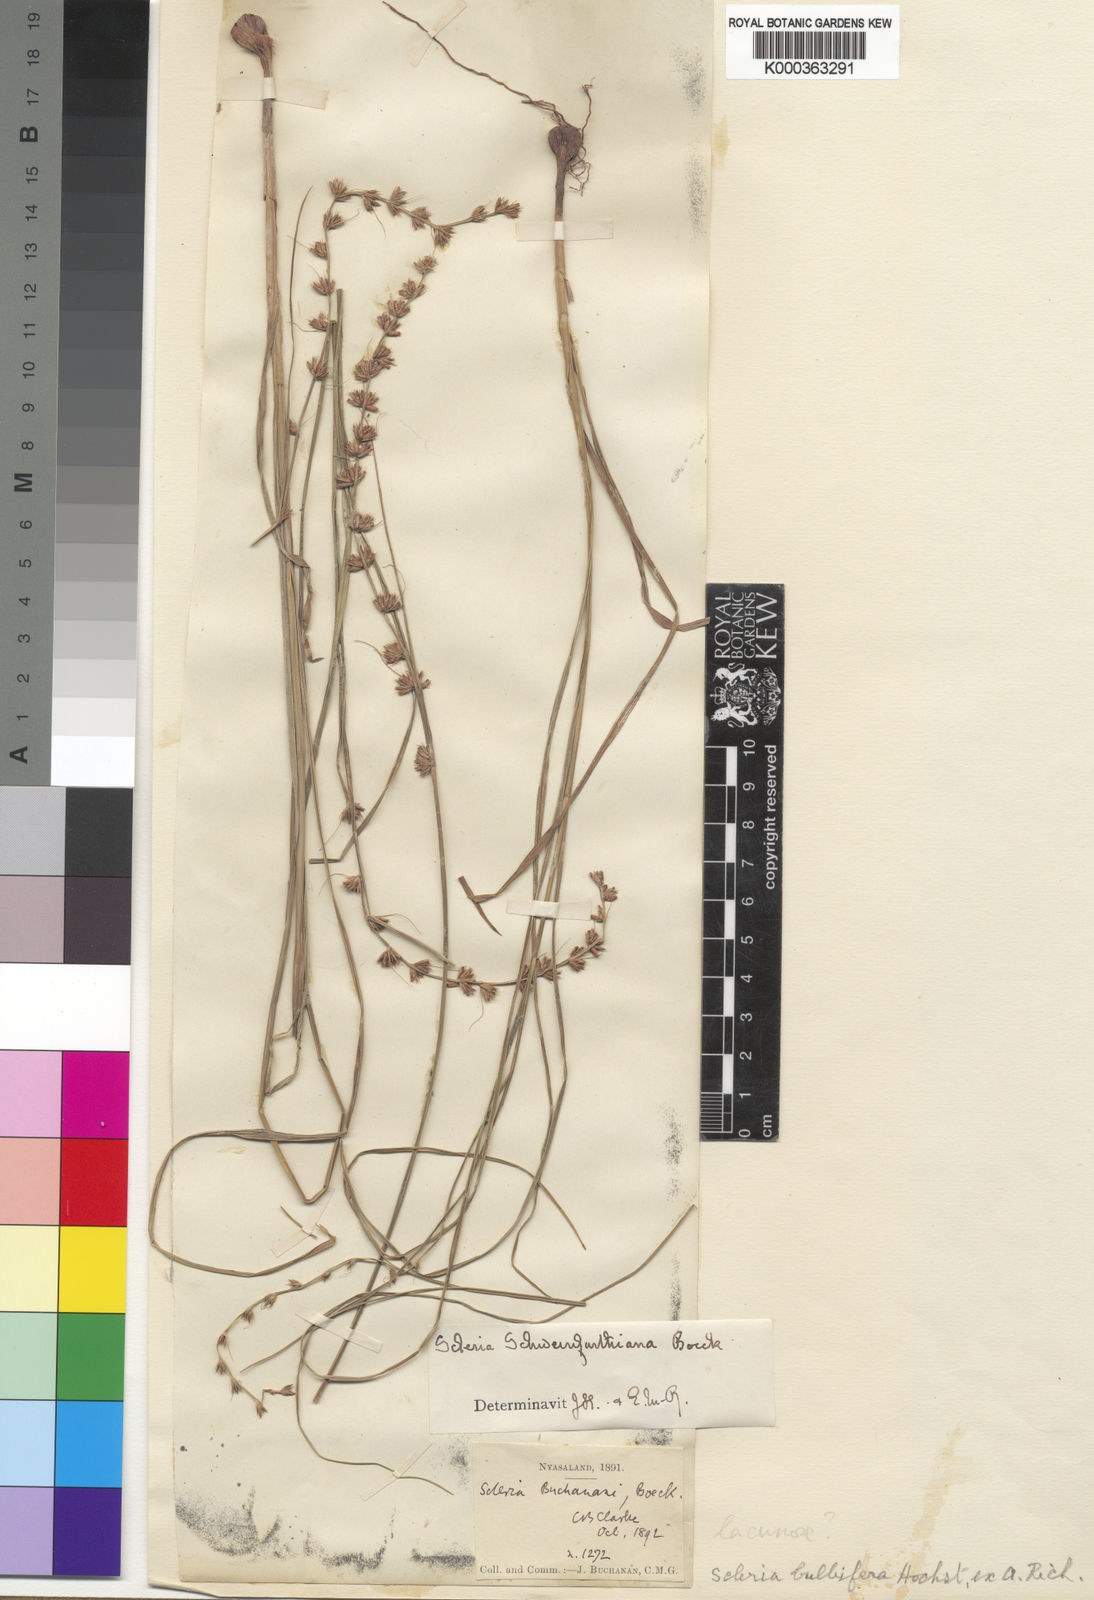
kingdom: Plantae
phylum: Tracheophyta
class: Liliopsida
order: Poales
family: Cyperaceae
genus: Scleria
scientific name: Scleria bulbifera
